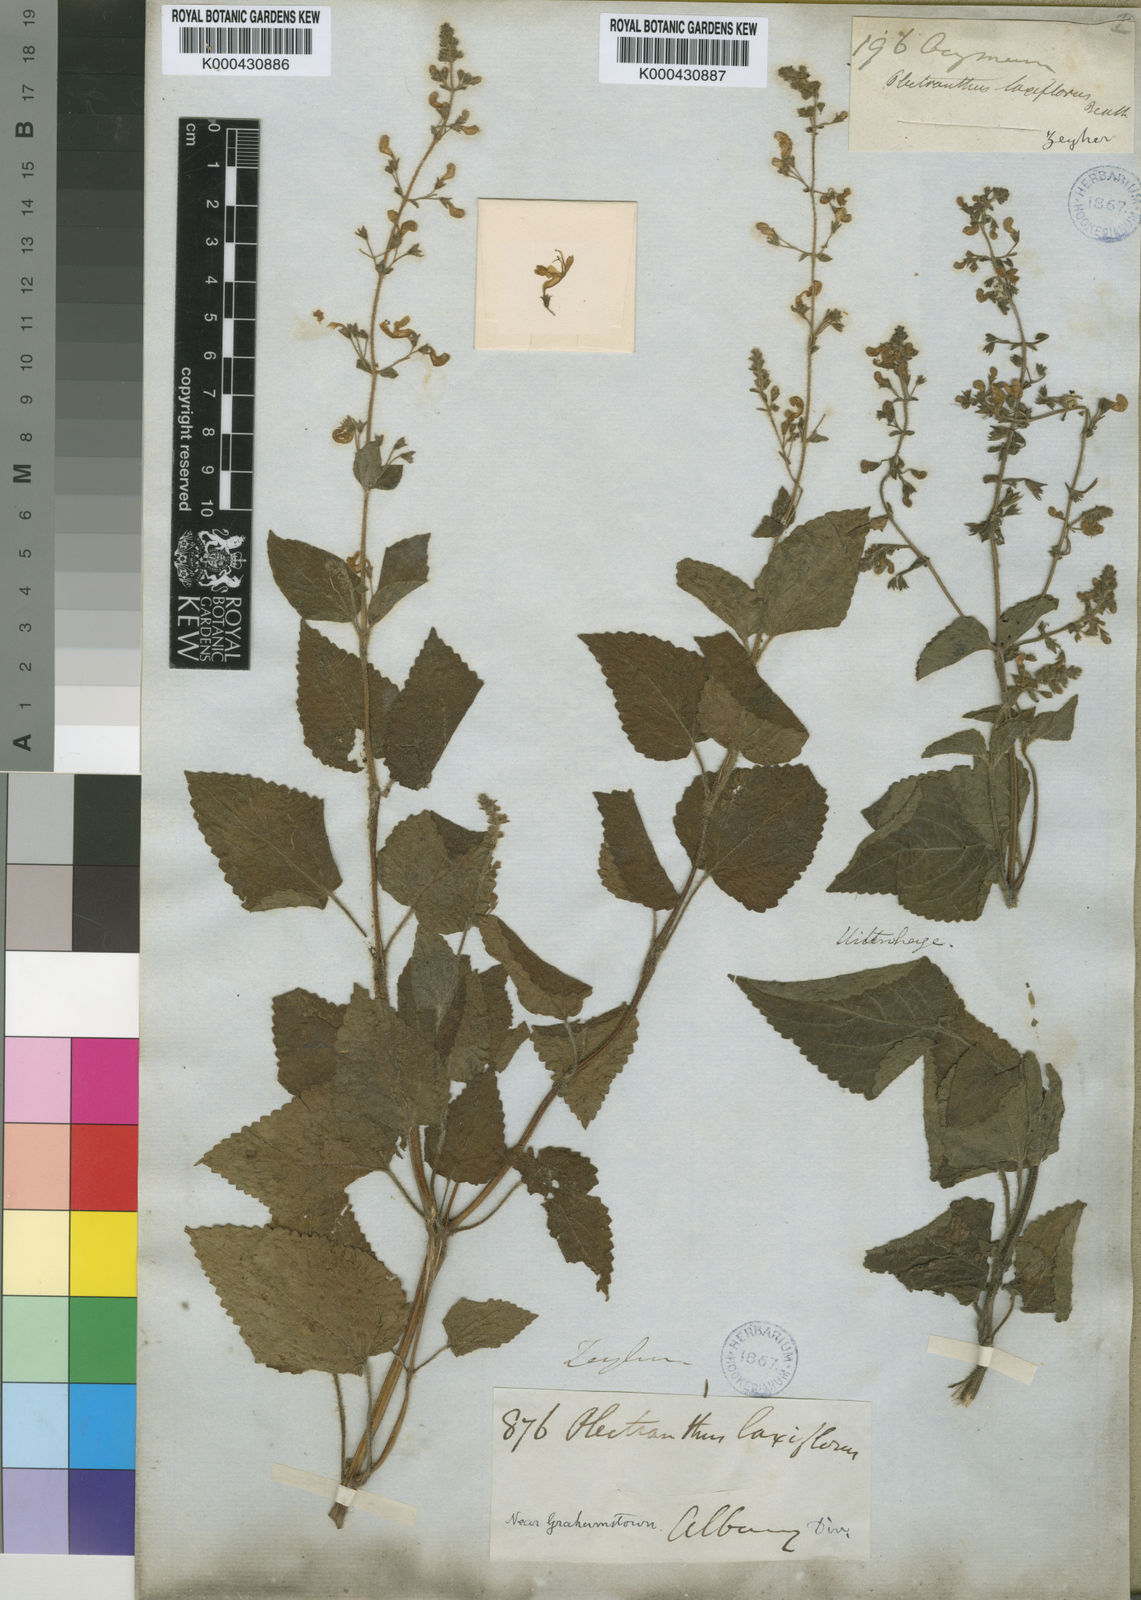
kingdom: Plantae
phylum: Tracheophyta
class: Magnoliopsida
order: Lamiales
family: Lamiaceae
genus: Equilabium
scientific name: Equilabium laxiflorum
